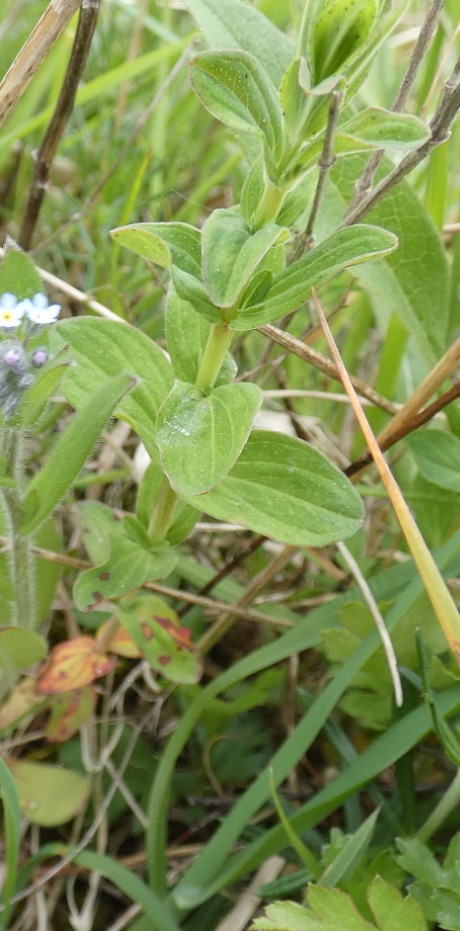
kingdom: Plantae
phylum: Tracheophyta
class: Magnoliopsida
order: Malpighiales
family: Hypericaceae
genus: Hypericum
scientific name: Hypericum perforatum
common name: Prikbladet perikon
